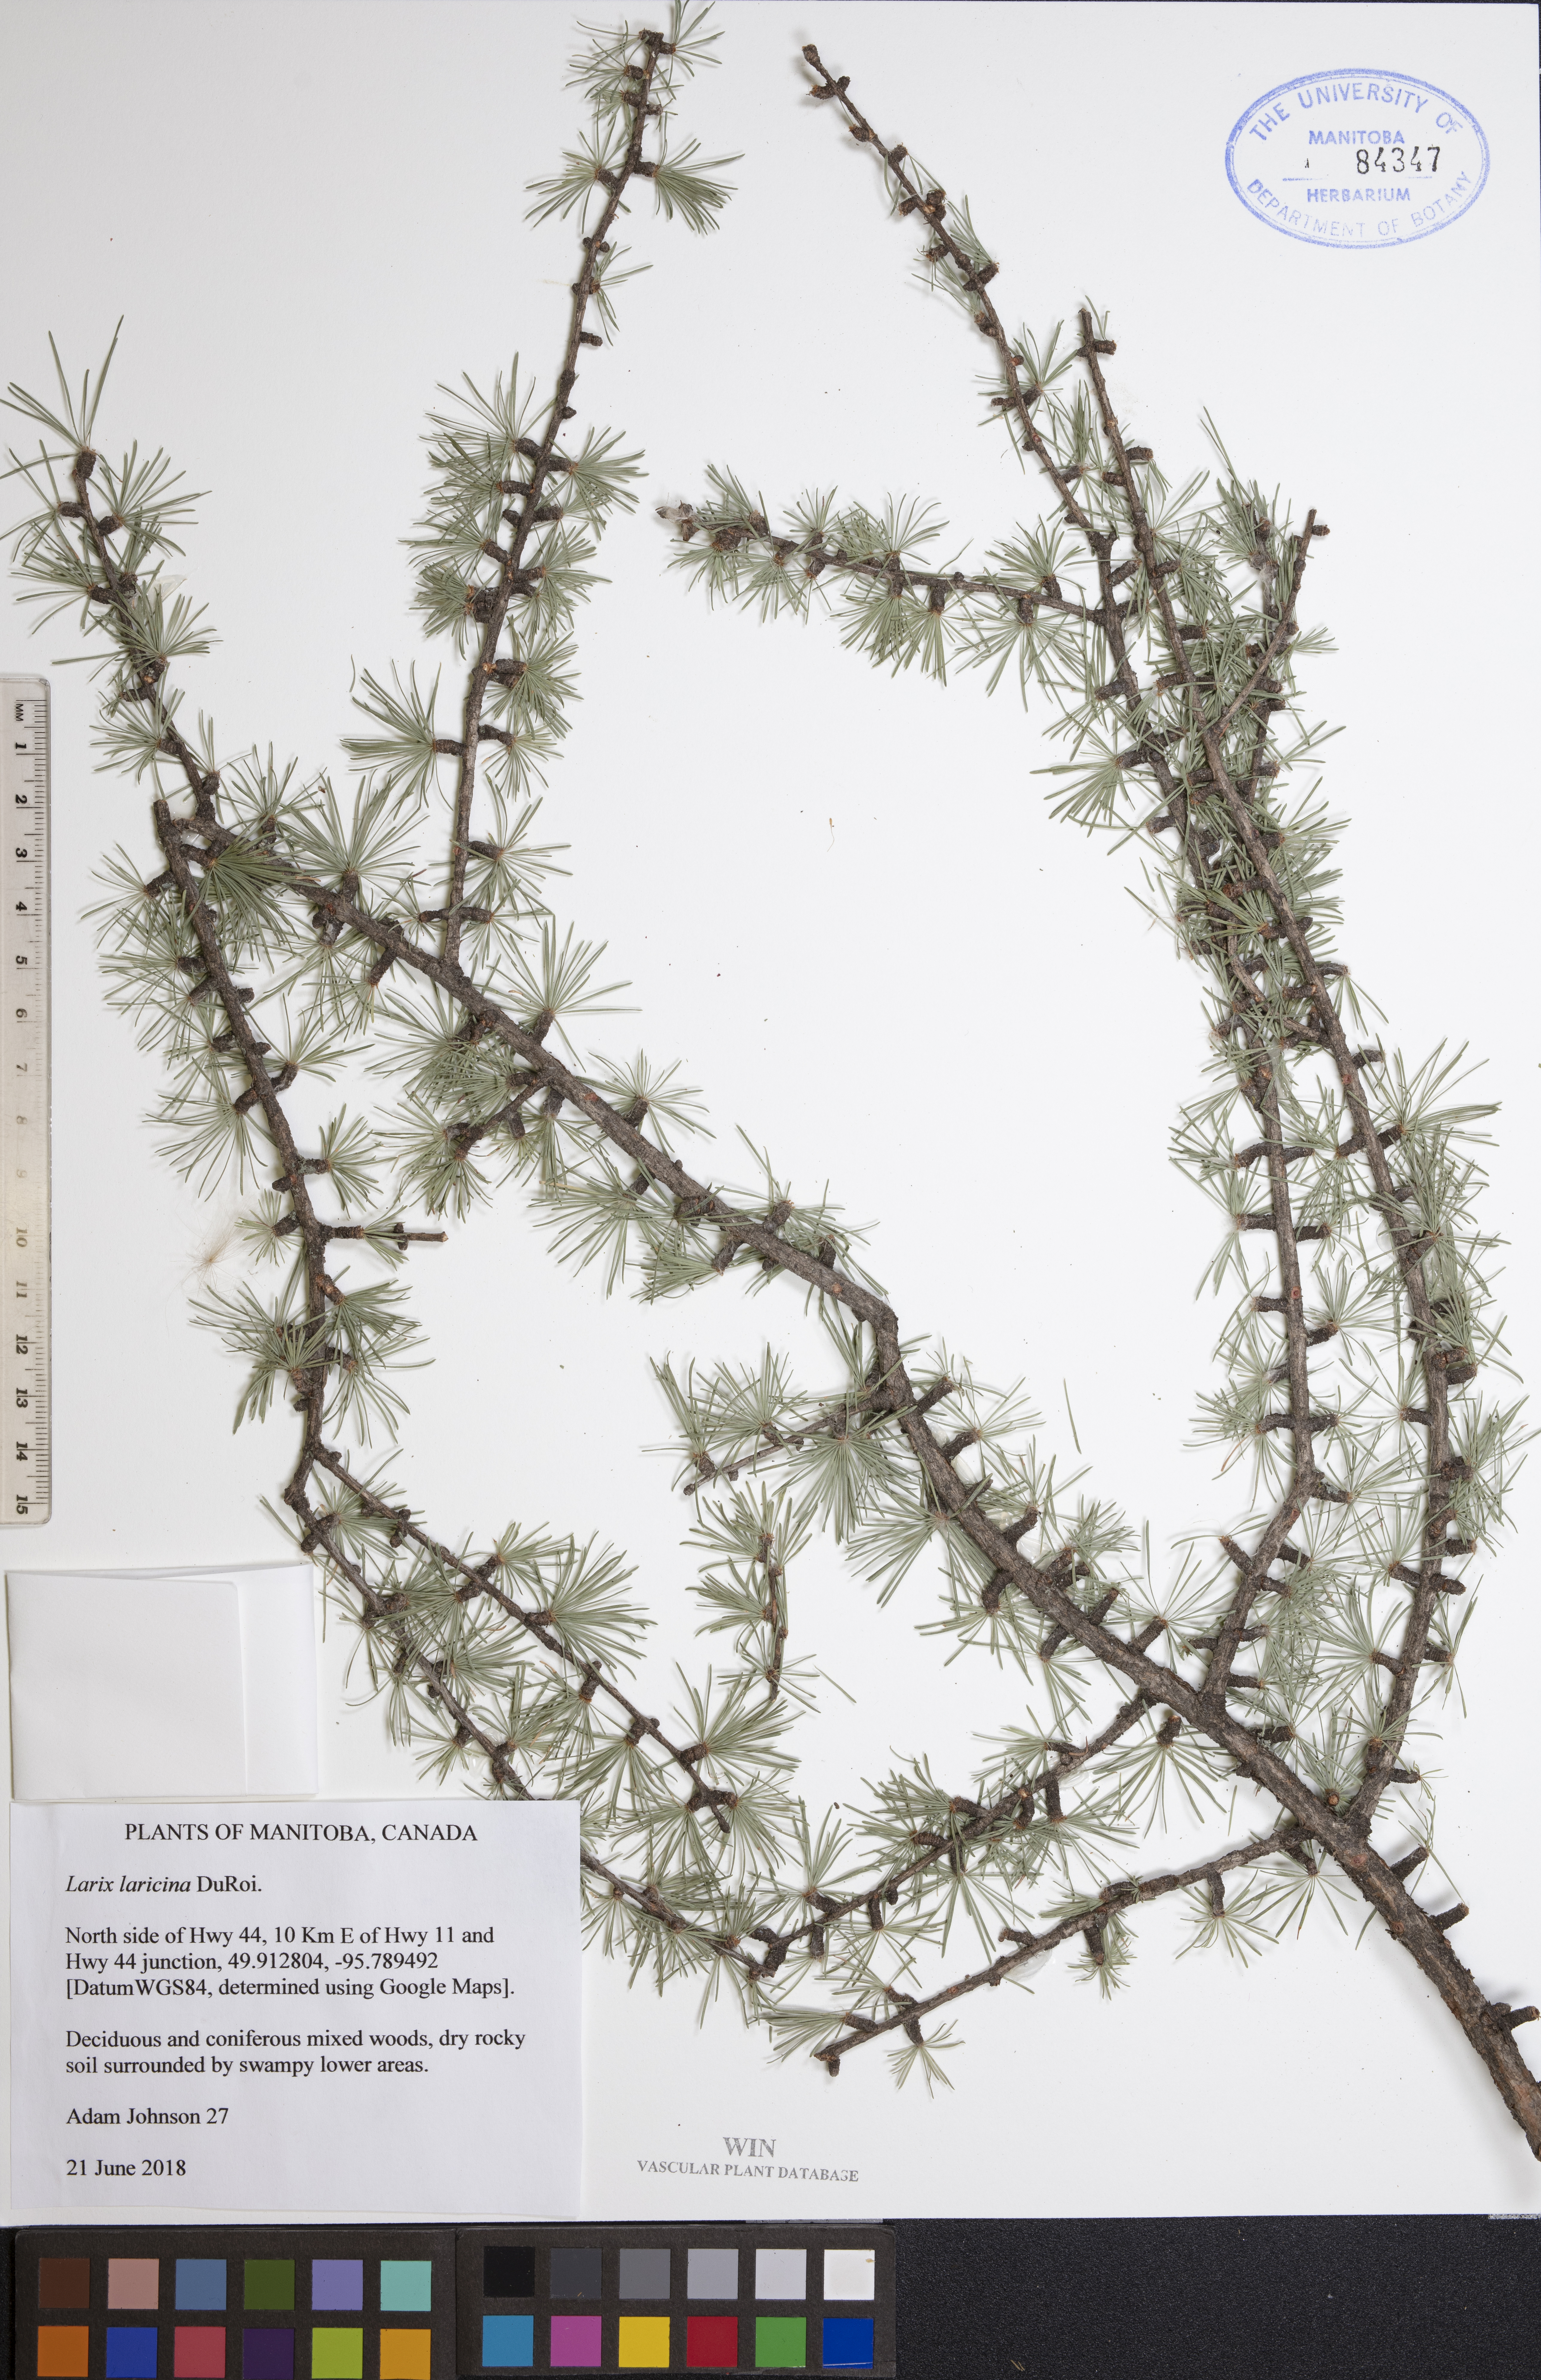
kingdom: Plantae
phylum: Tracheophyta
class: Pinopsida
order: Pinales
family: Pinaceae
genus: Larix
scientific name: Larix laricina
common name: American larch
